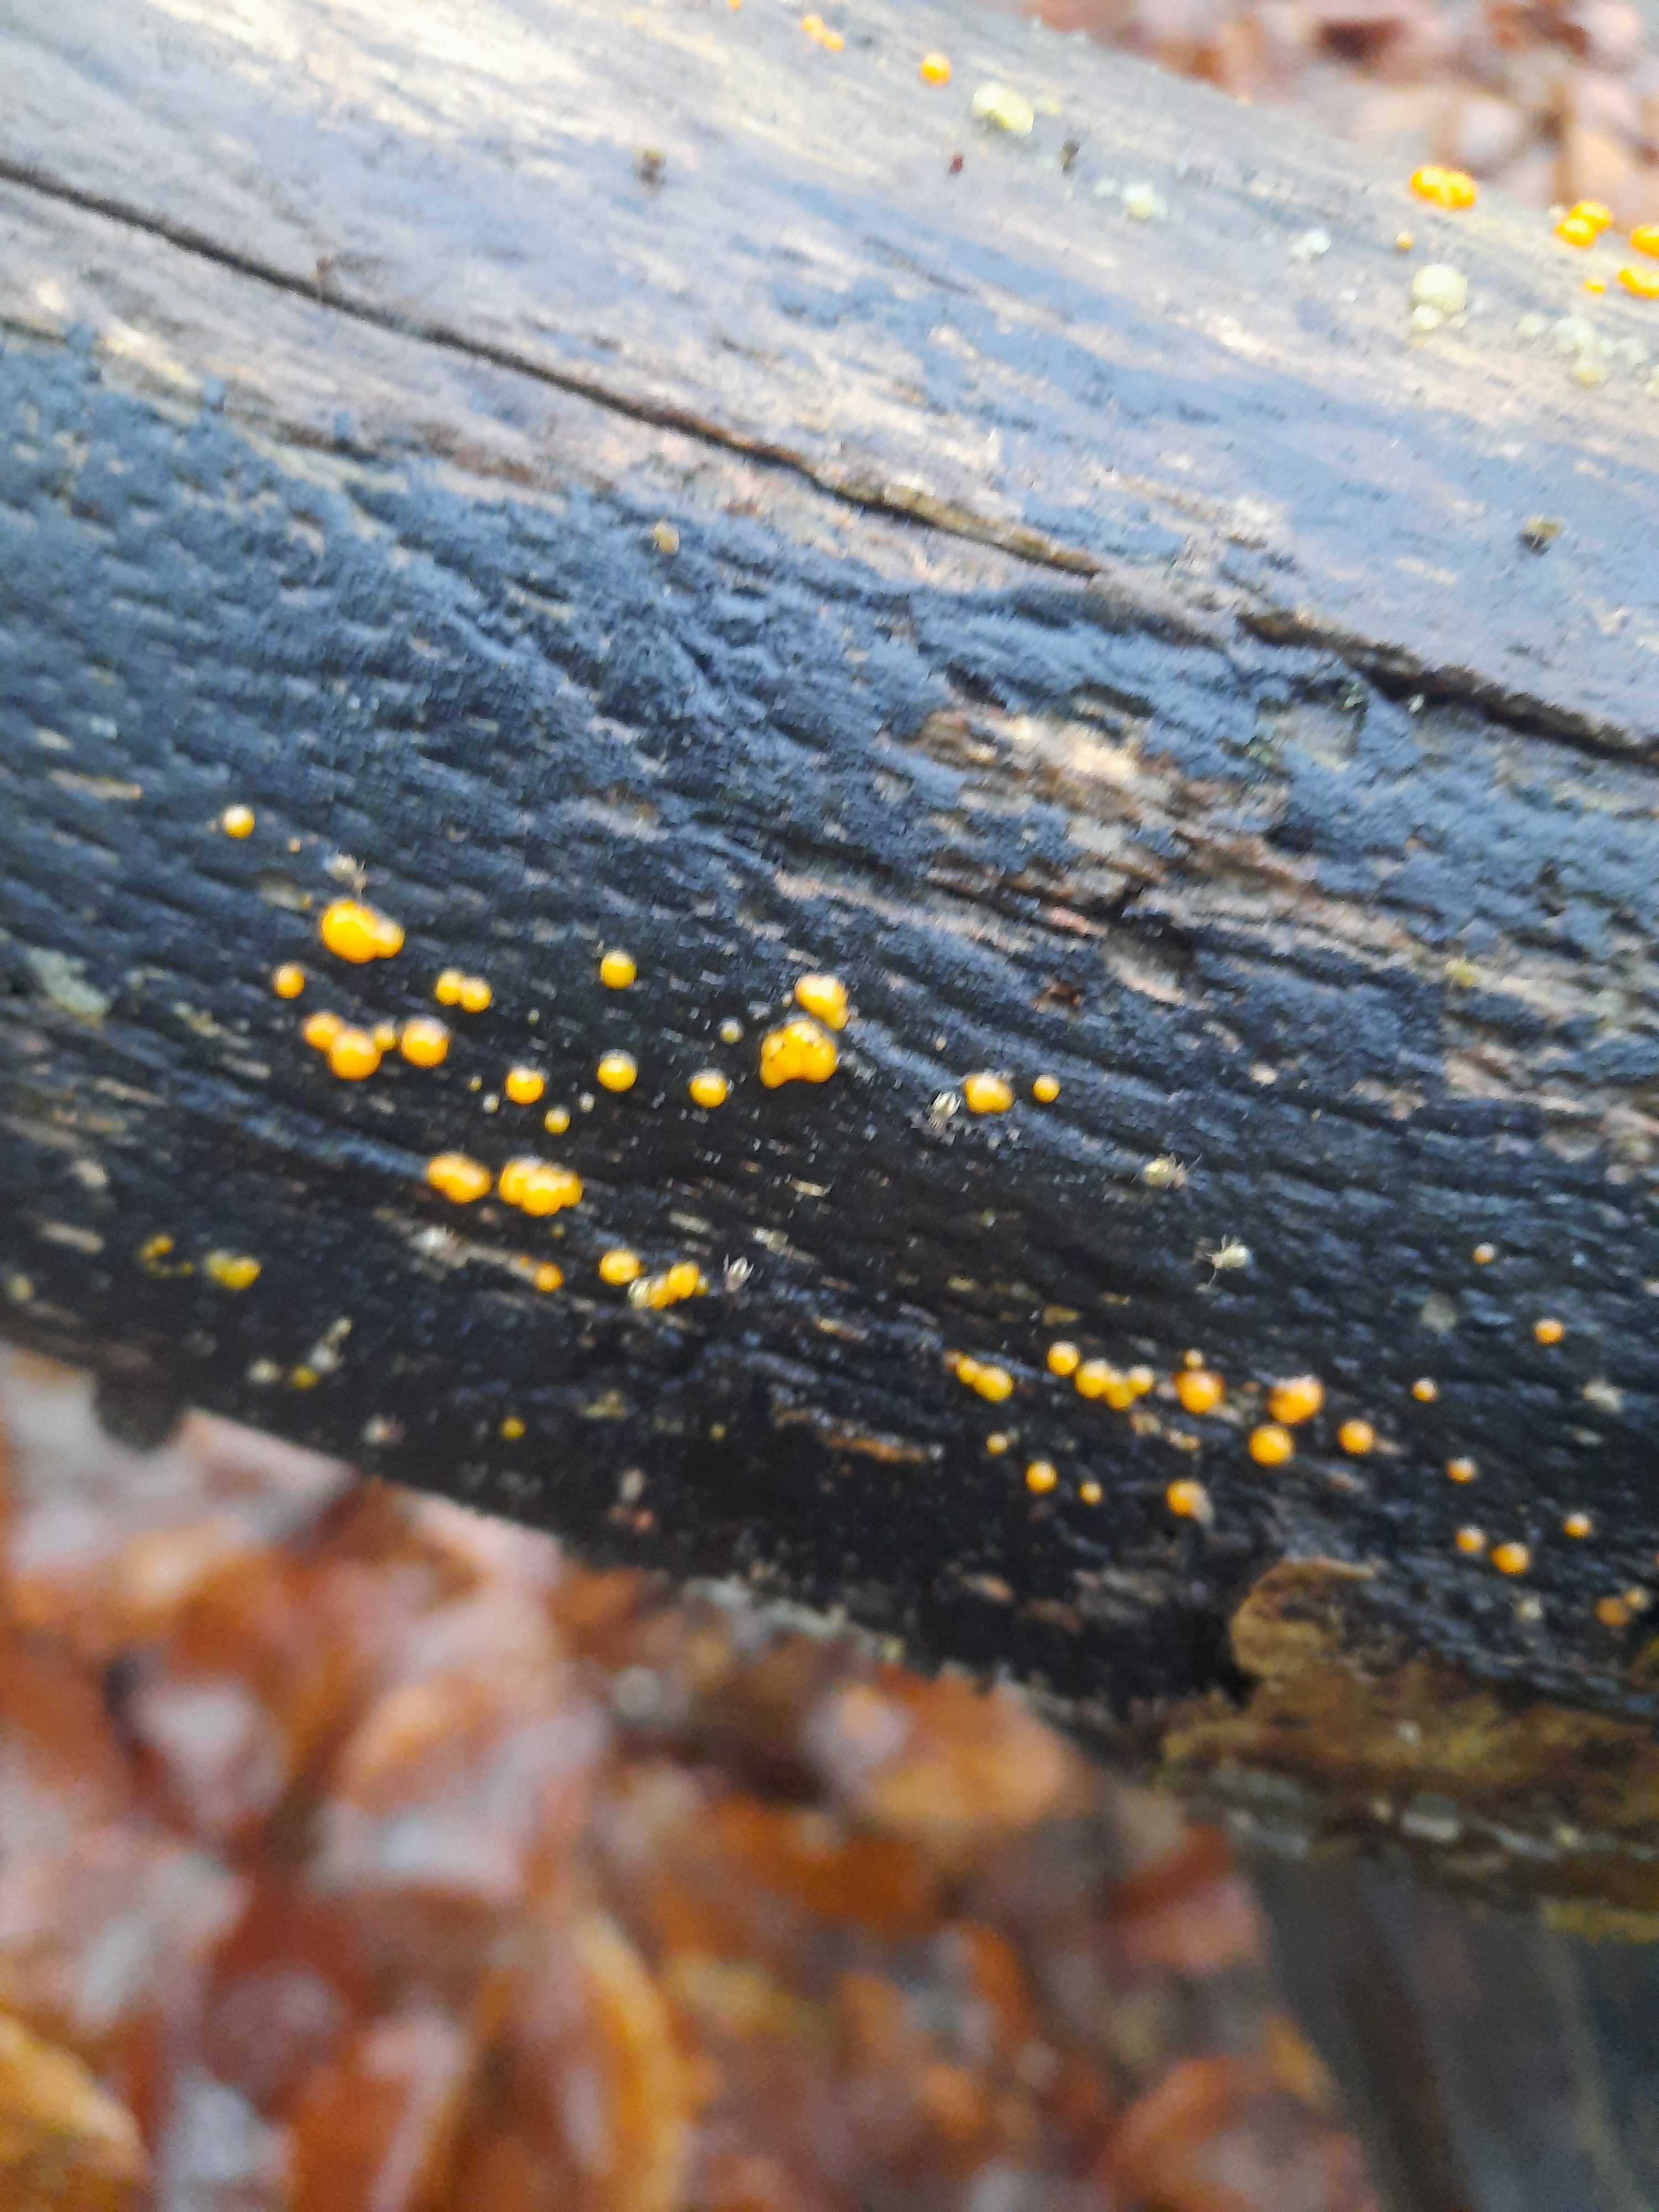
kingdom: Fungi
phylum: Basidiomycota
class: Dacrymycetes
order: Dacrymycetales
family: Dacrymycetaceae
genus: Dacrymyces
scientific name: Dacrymyces stillatus
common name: almindelig tåresvamp
